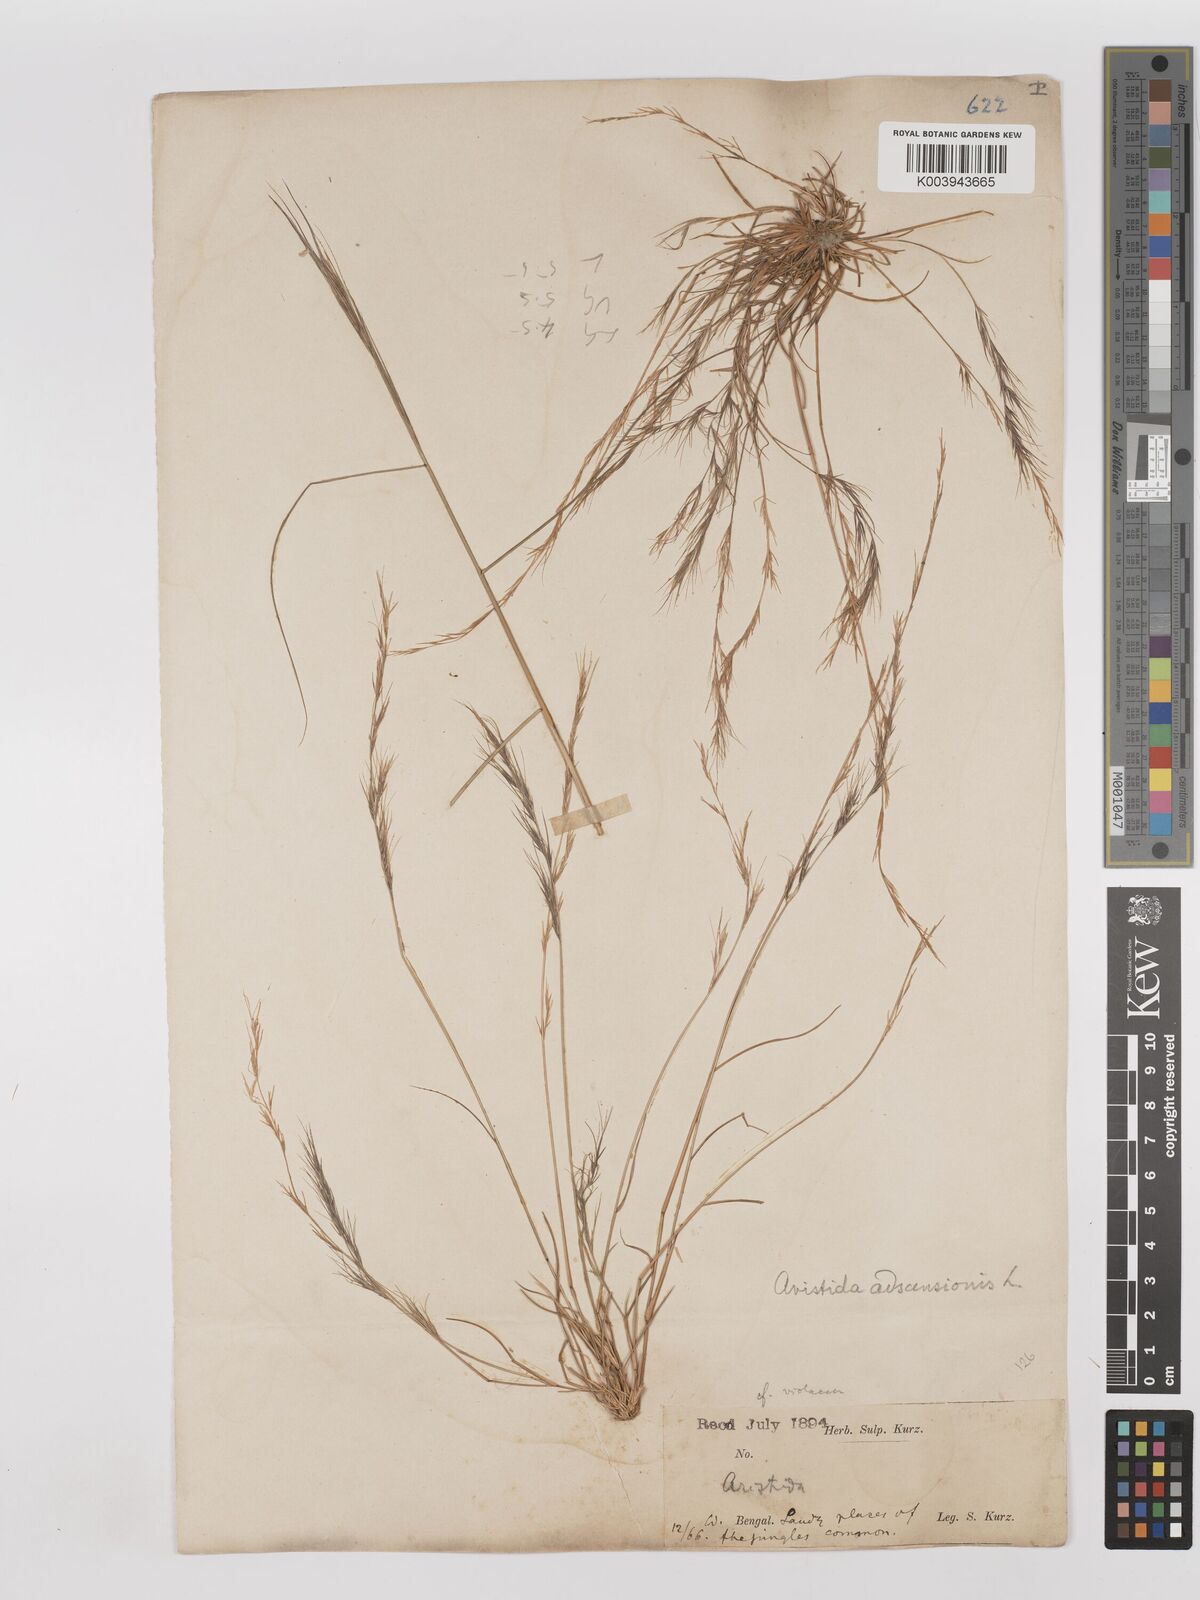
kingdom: Plantae
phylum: Tracheophyta
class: Liliopsida
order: Poales
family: Poaceae
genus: Aristida
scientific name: Aristida adscensionis
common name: Sixweeks threeawn
